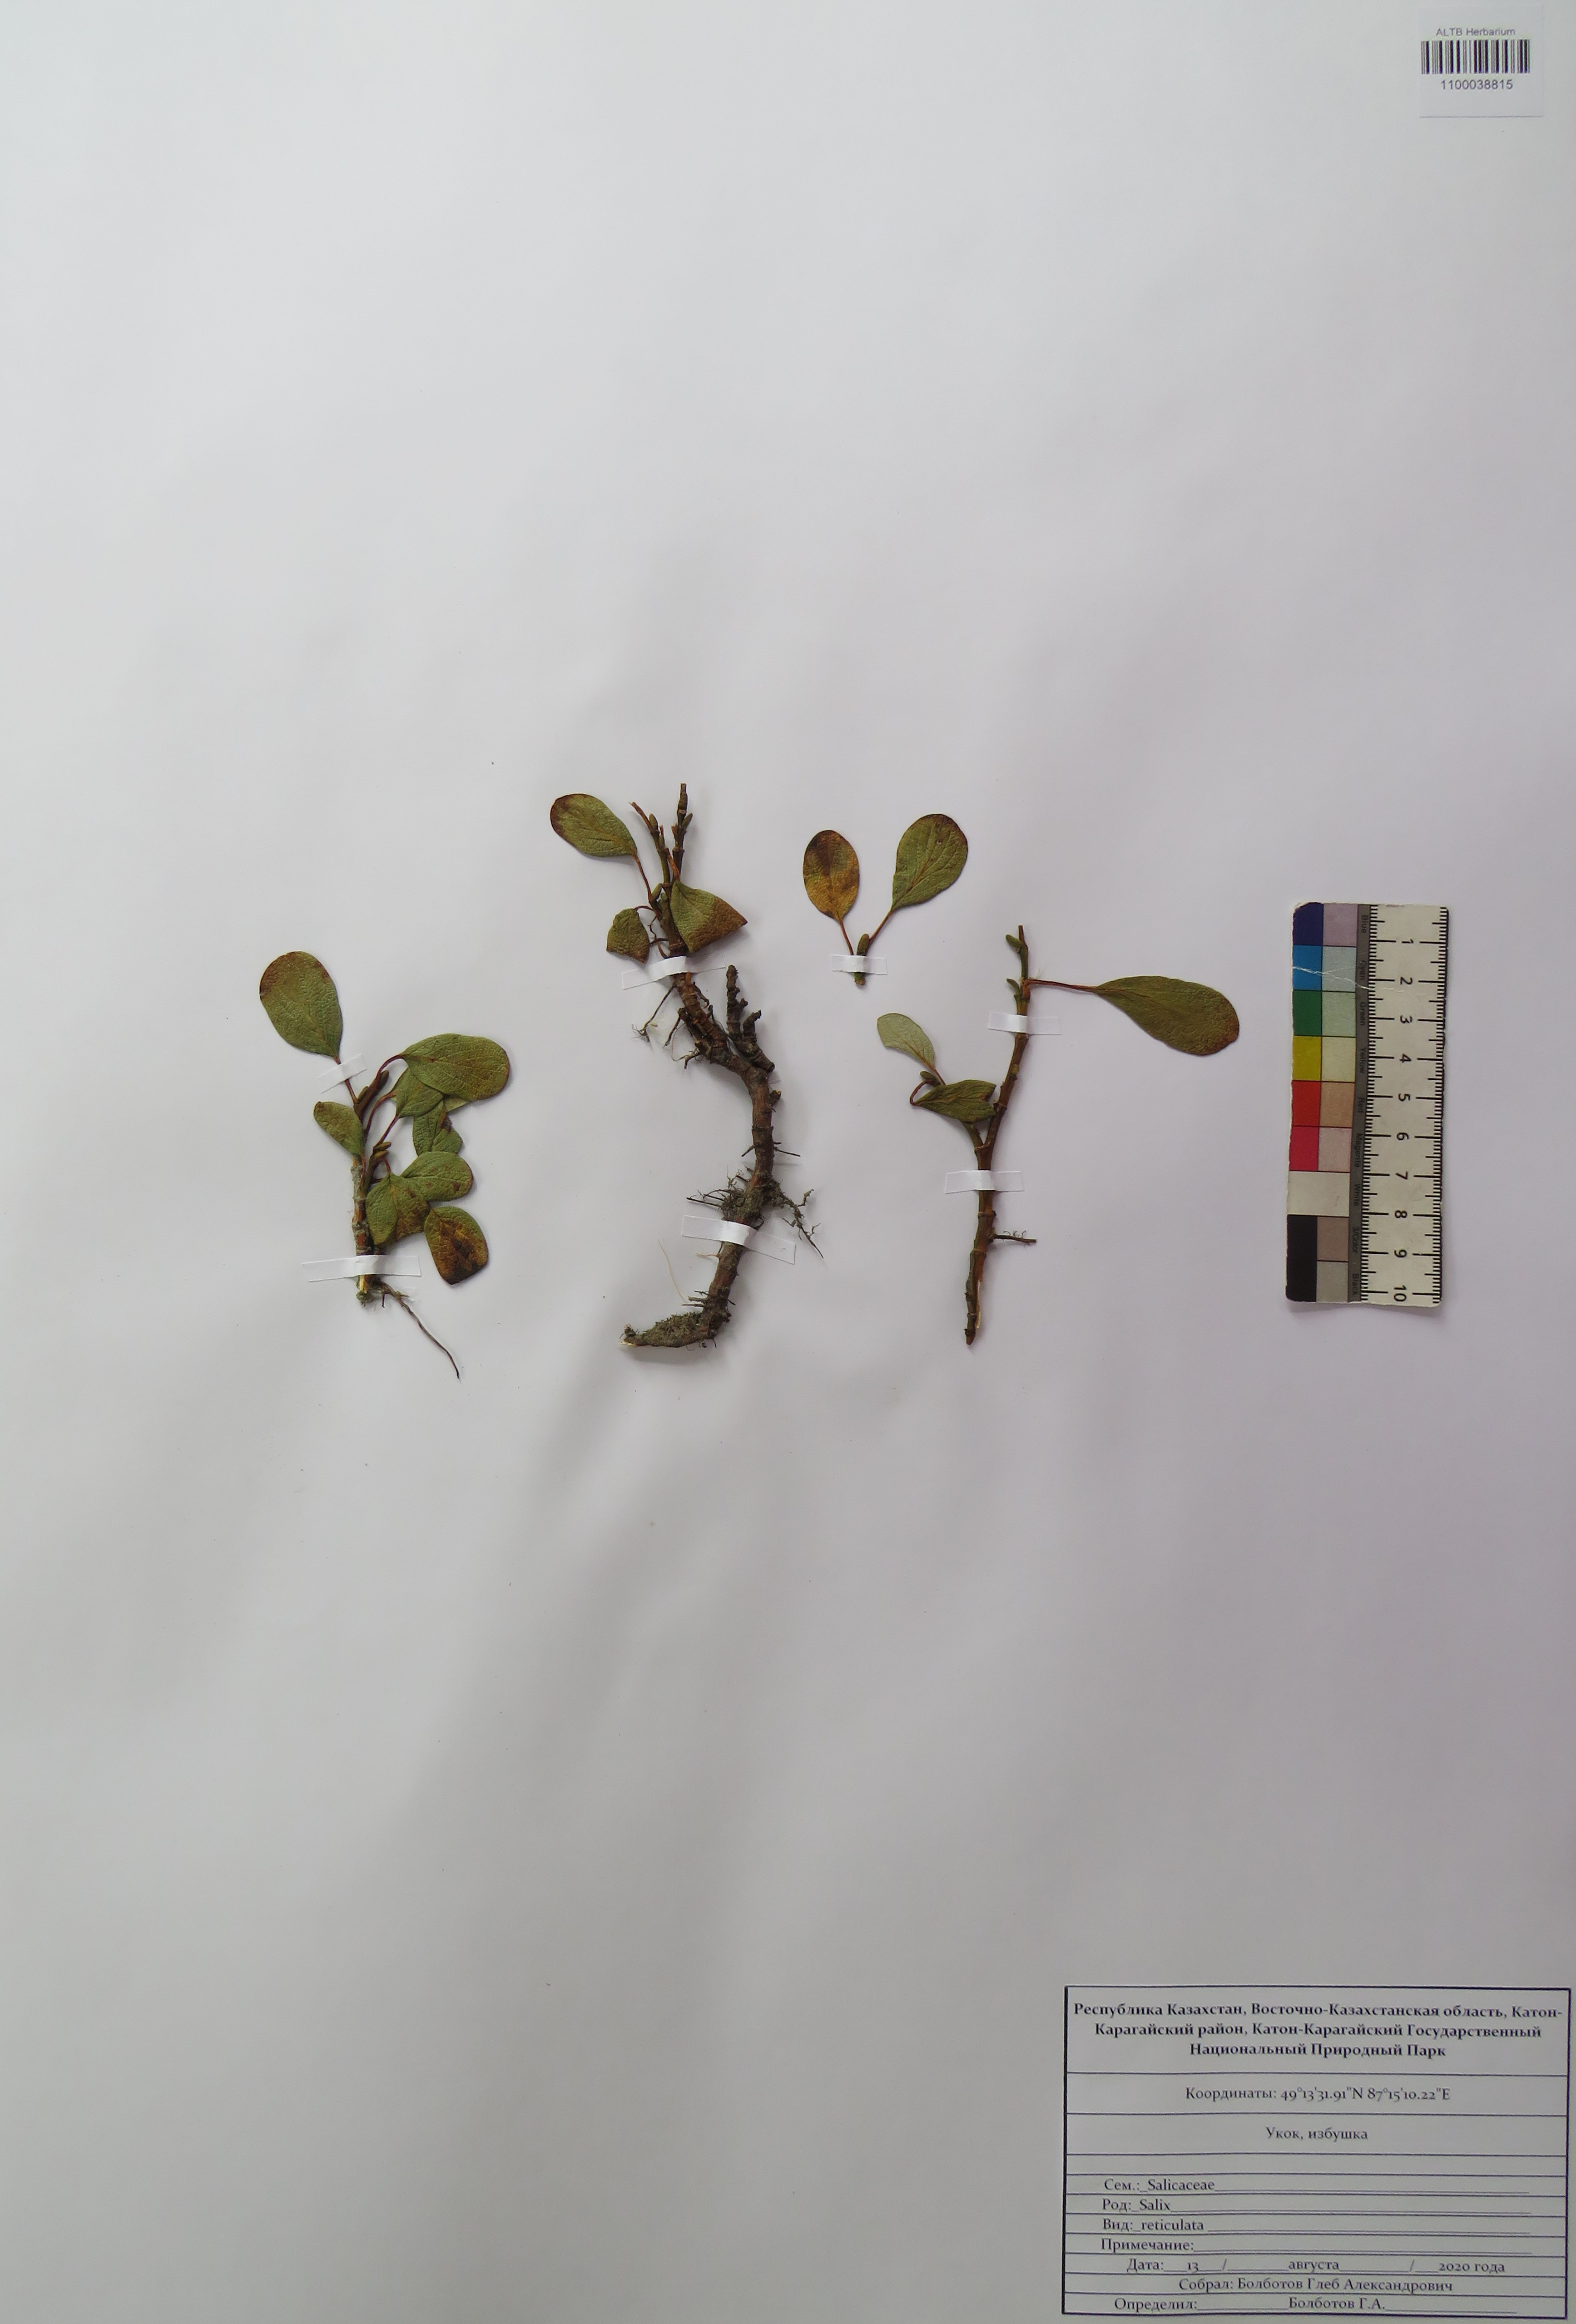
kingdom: Plantae
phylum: Tracheophyta
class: Magnoliopsida
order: Malpighiales
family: Salicaceae
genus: Salix
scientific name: Salix reticulata
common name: Net-leaved willow
